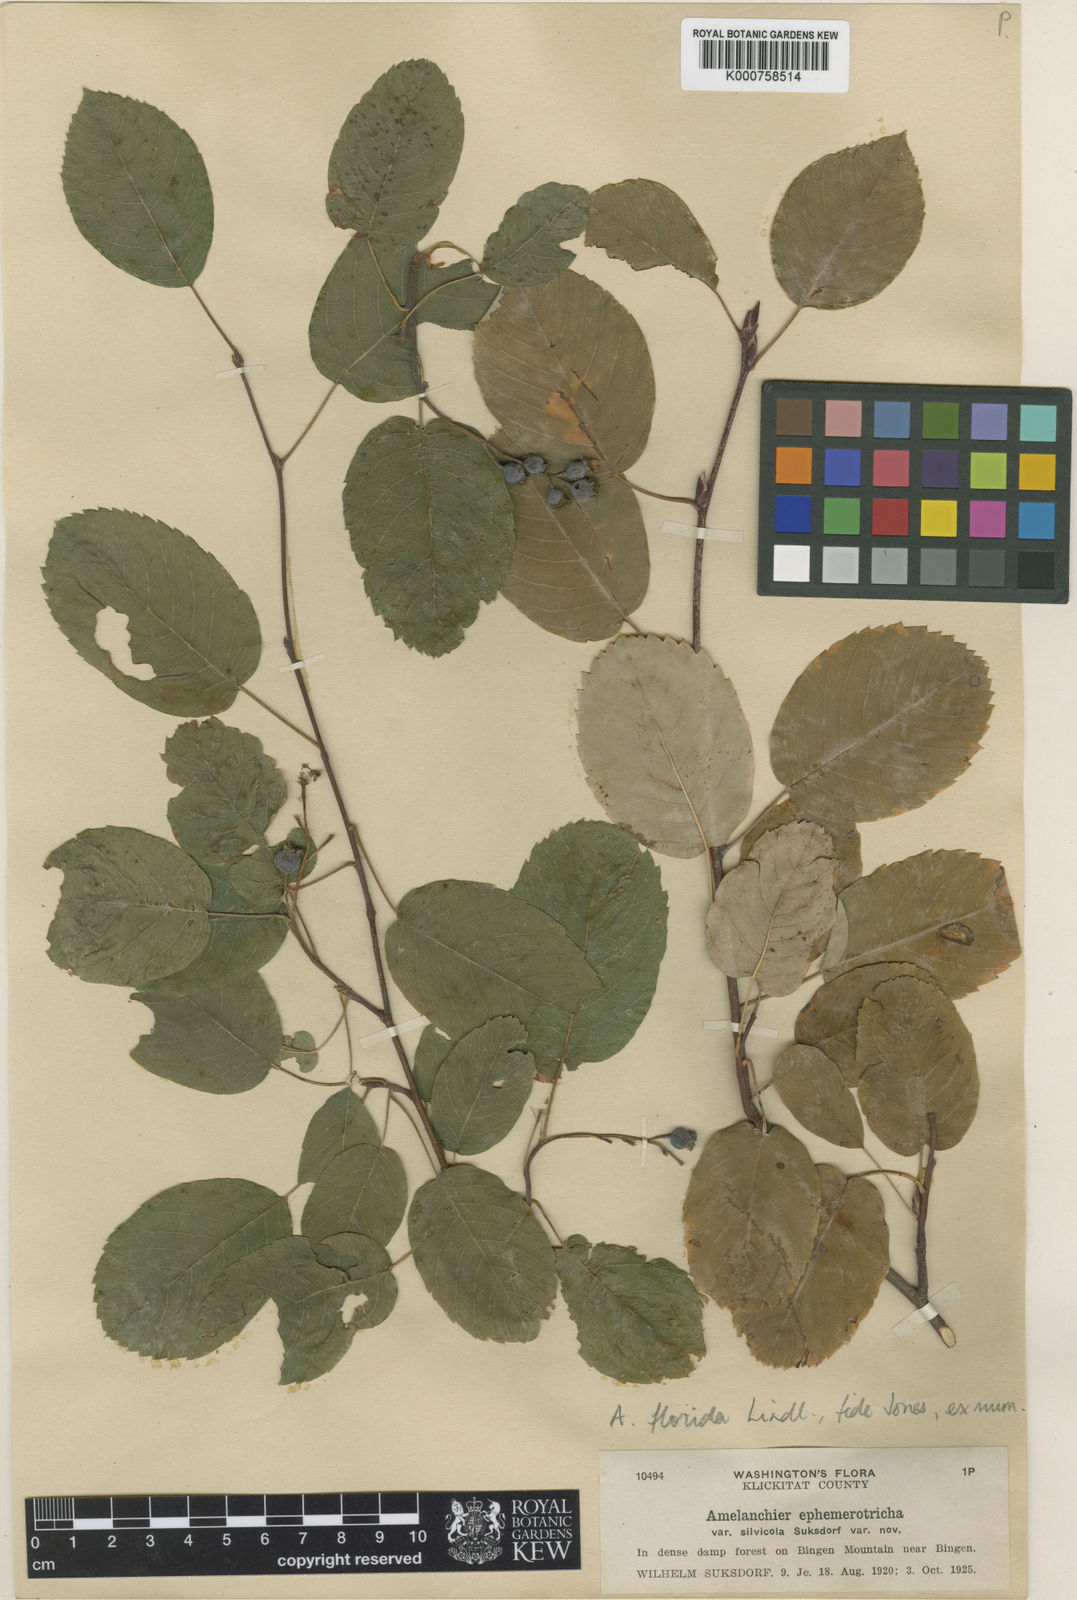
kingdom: Plantae
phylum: Tracheophyta
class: Magnoliopsida
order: Rosales
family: Rosaceae
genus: Amelanchier
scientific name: Amelanchier
